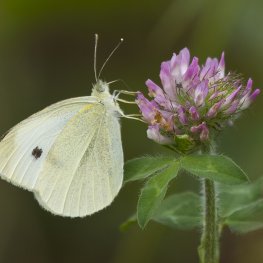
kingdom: Animalia
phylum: Arthropoda
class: Insecta
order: Lepidoptera
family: Pieridae
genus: Pieris
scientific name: Pieris rapae
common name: Cabbage White
